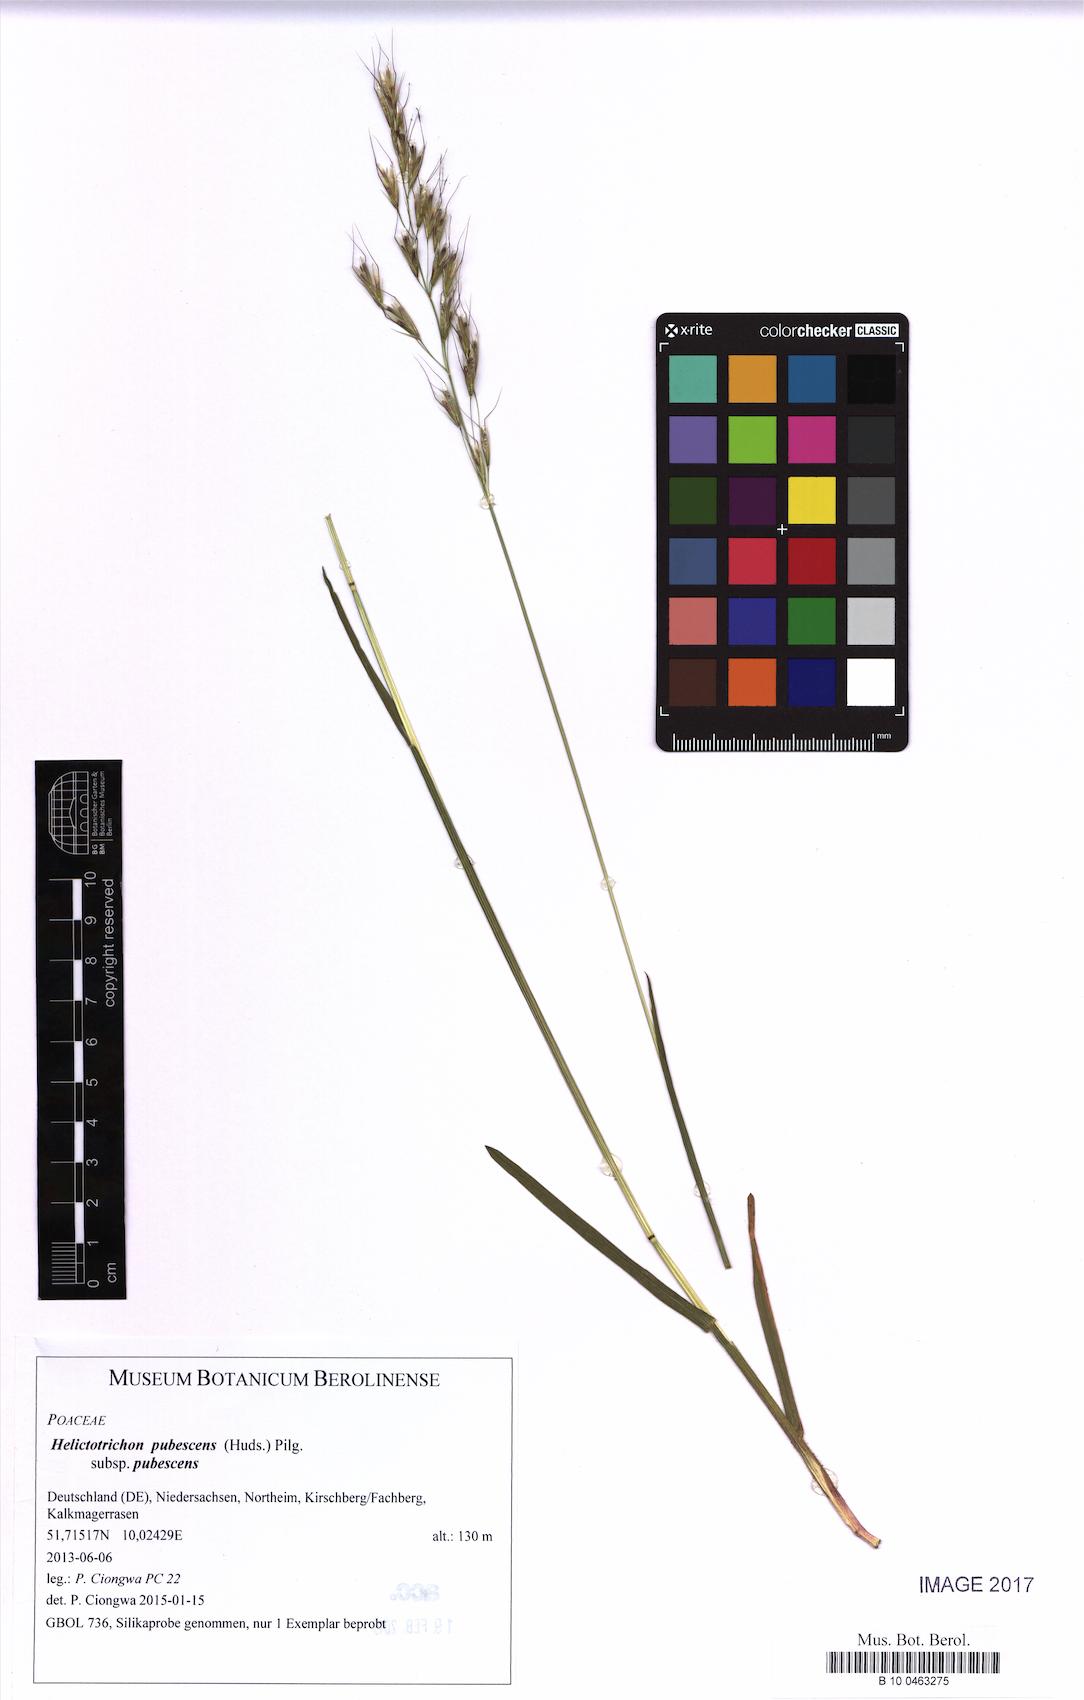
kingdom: Plantae
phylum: Tracheophyta
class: Liliopsida
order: Poales
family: Poaceae
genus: Avenula
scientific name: Avenula pubescens
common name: Downy alpine oatgrass
